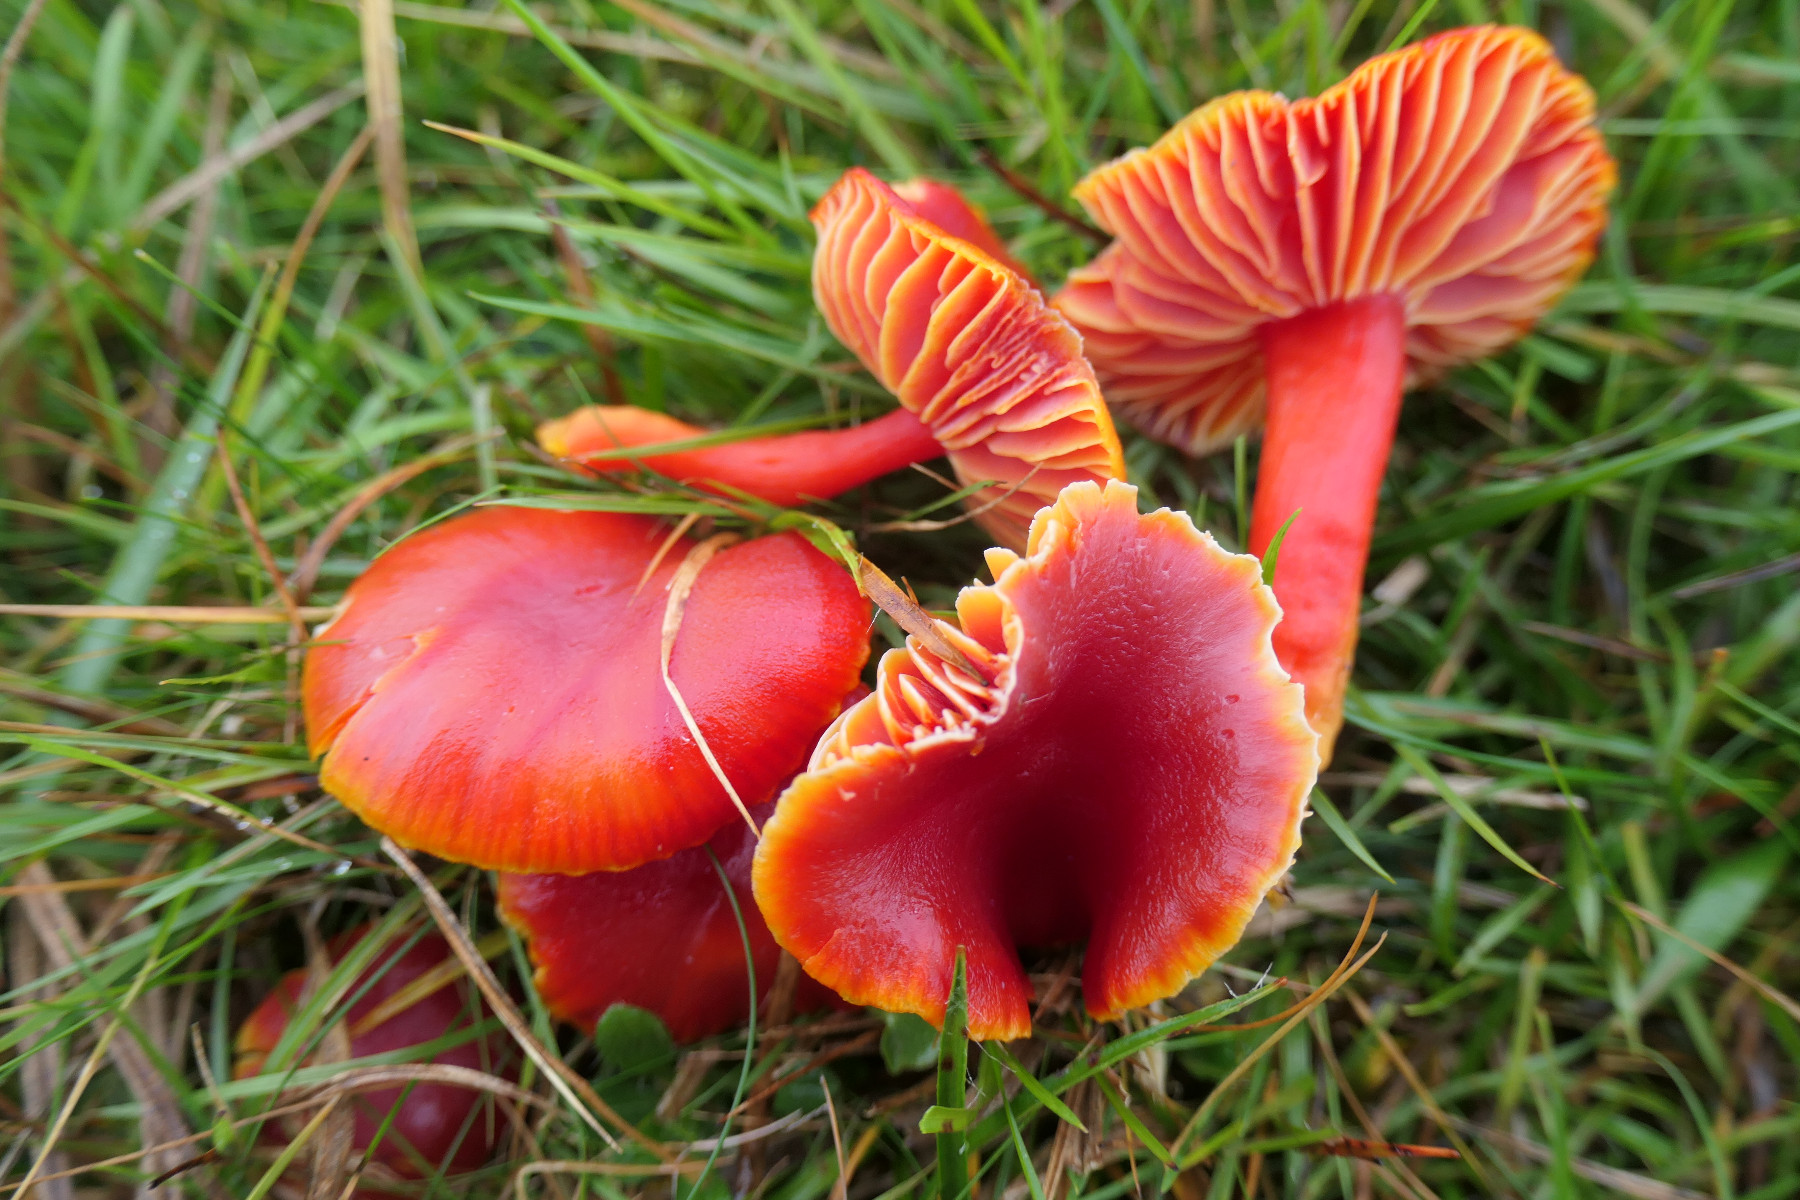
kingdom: Fungi
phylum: Basidiomycota
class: Agaricomycetes
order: Agaricales
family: Hygrophoraceae
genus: Hygrocybe
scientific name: Hygrocybe coccinea
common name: cinnober-vokshat
